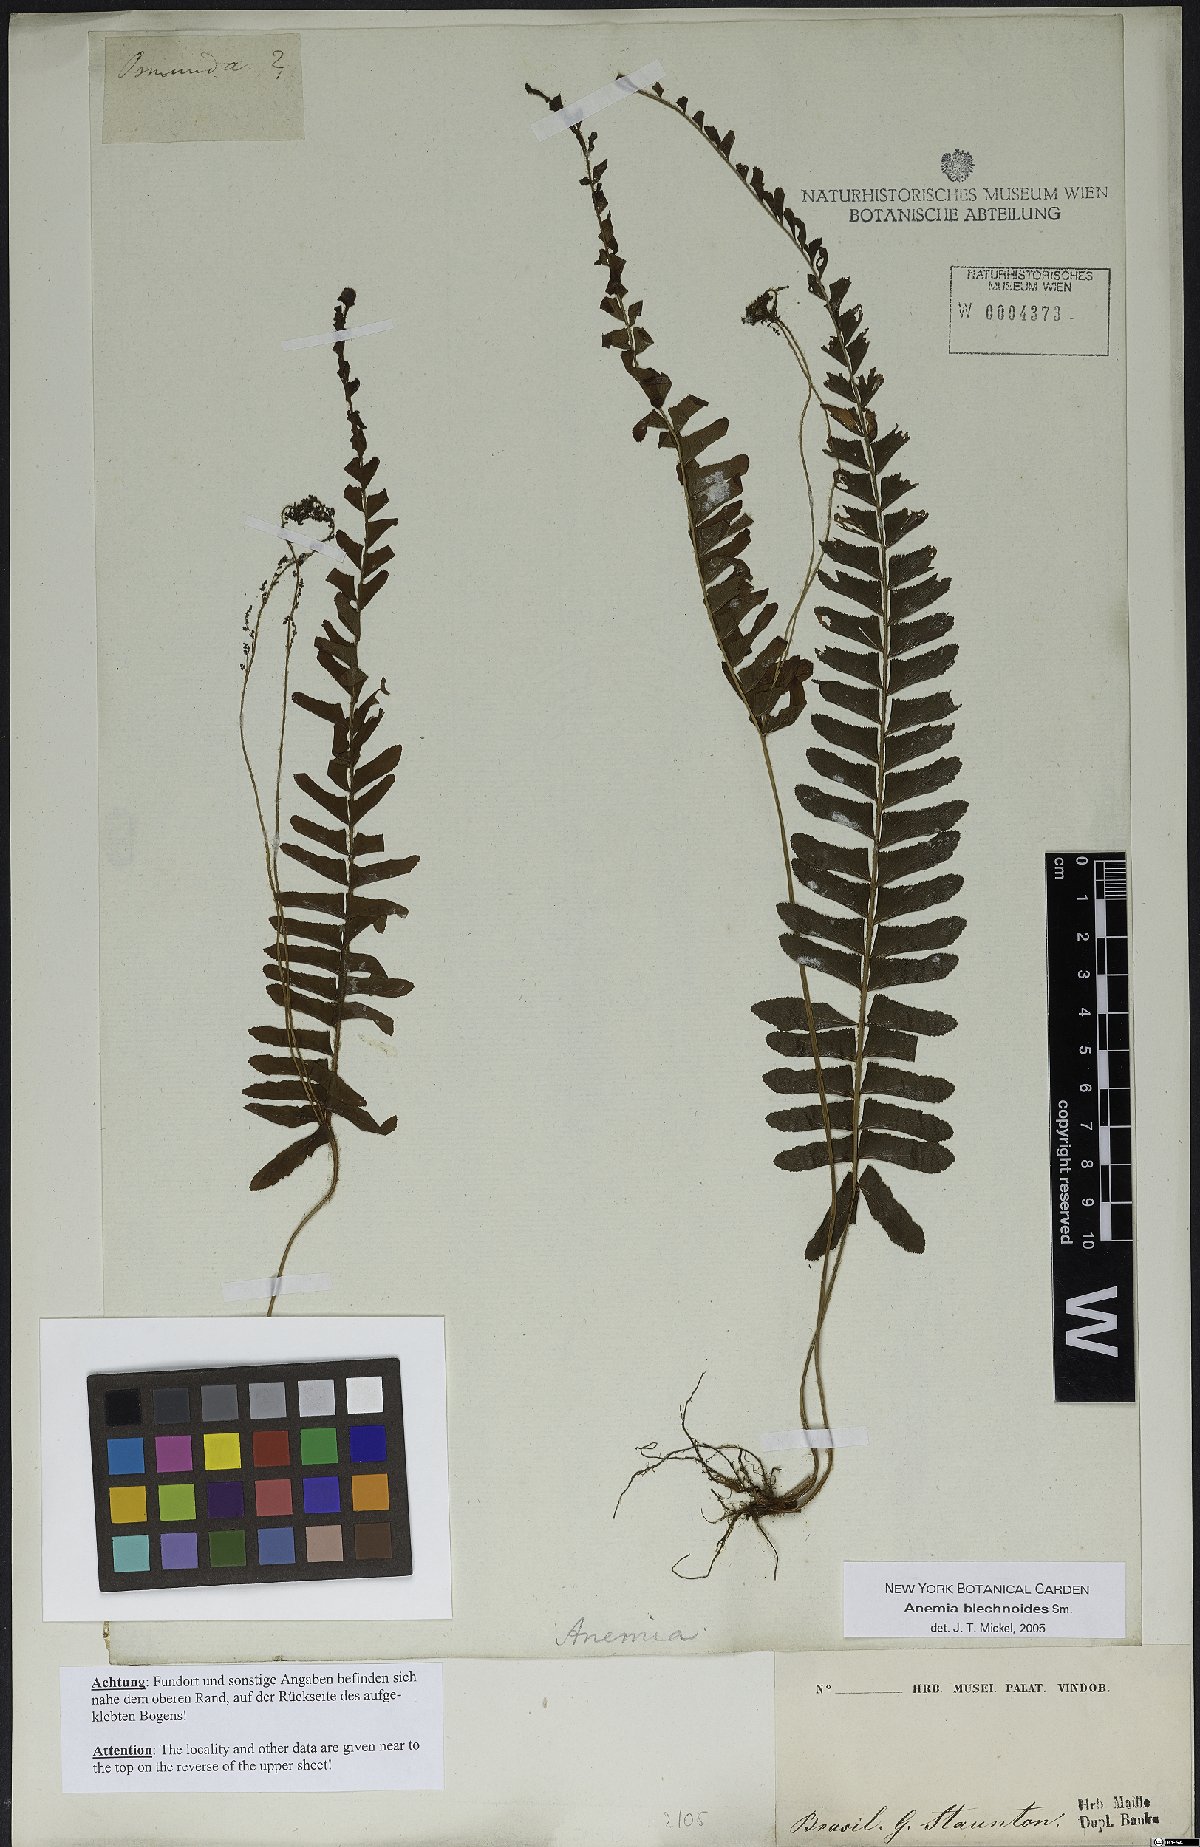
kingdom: Plantae
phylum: Tracheophyta
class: Polypodiopsida
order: Schizaeales
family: Anemiaceae
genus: Anemia
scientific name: Anemia spicantoides
